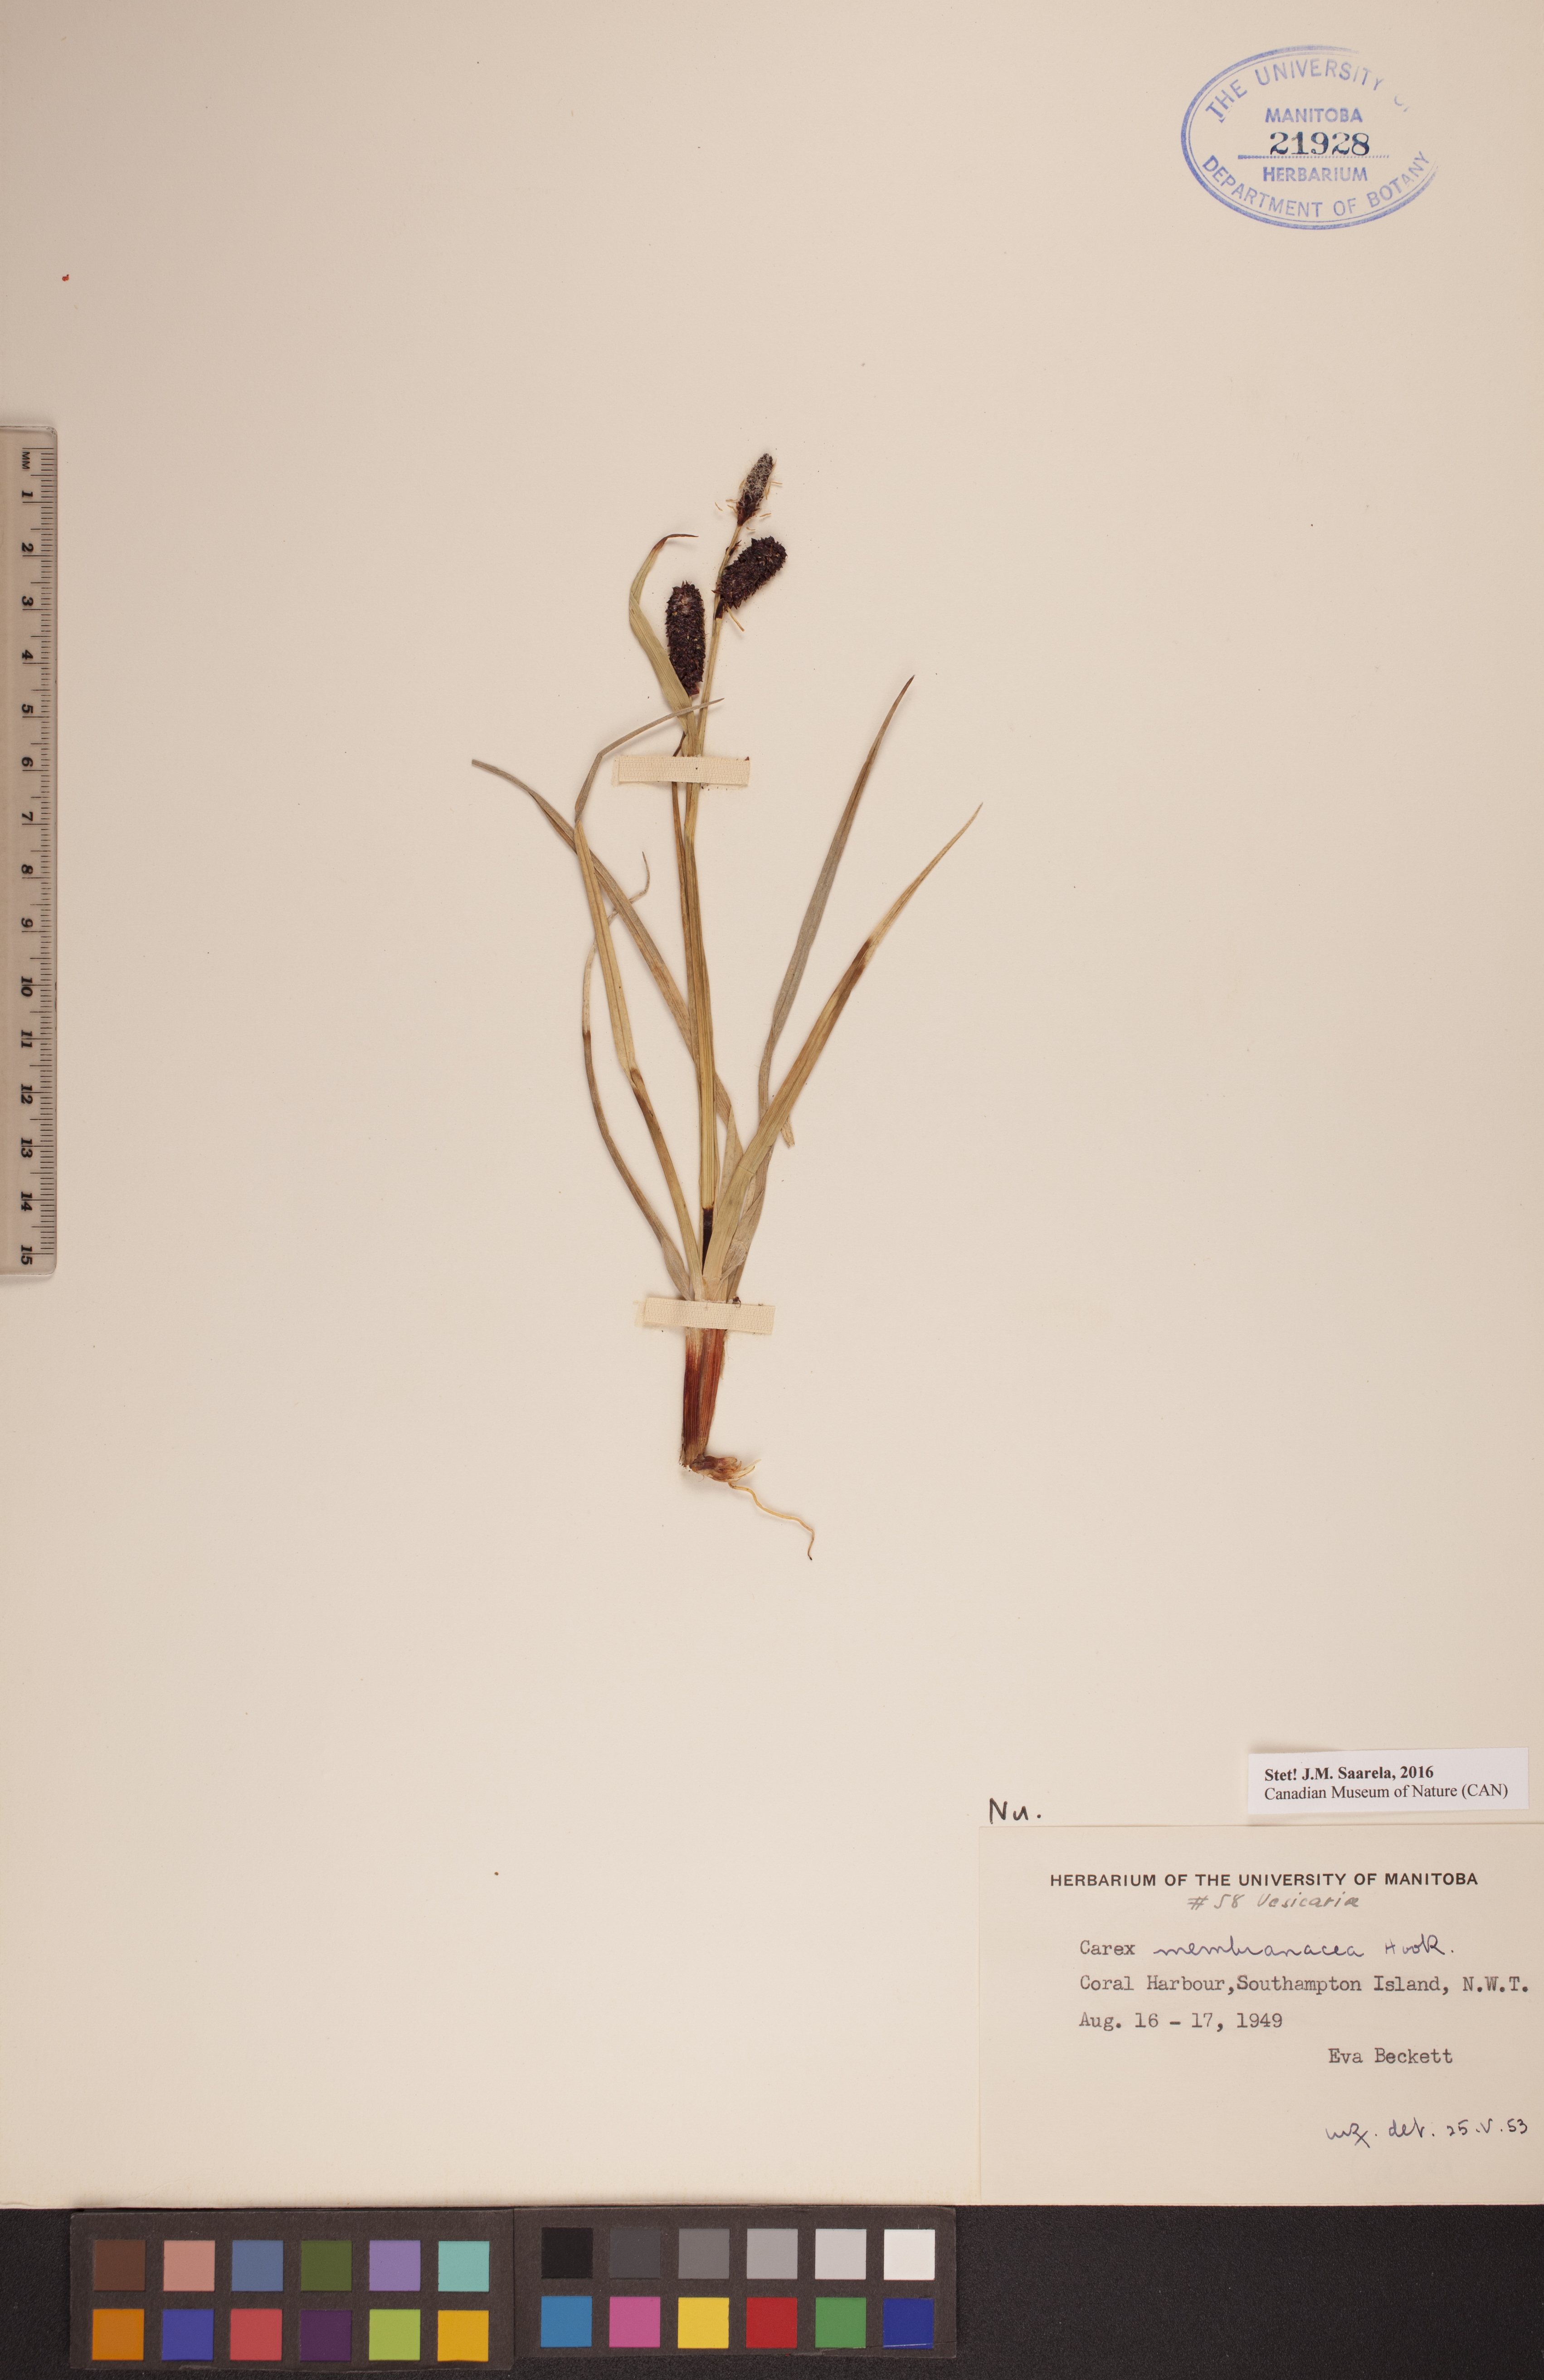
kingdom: Plantae
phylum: Tracheophyta
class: Liliopsida
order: Poales
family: Cyperaceae
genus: Carex
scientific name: Carex membranacea
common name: Fragile sedge
